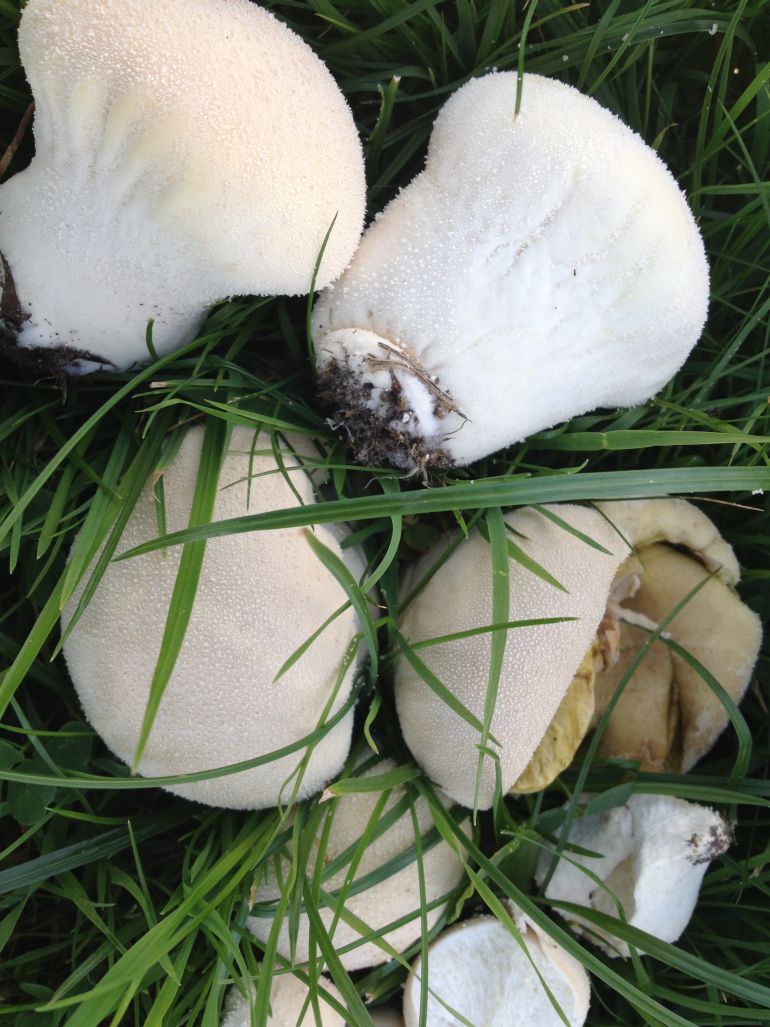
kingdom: Fungi
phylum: Basidiomycota
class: Agaricomycetes
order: Agaricales
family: Lycoperdaceae
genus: Lycoperdon
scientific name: Lycoperdon pratense
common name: flad støvbold
